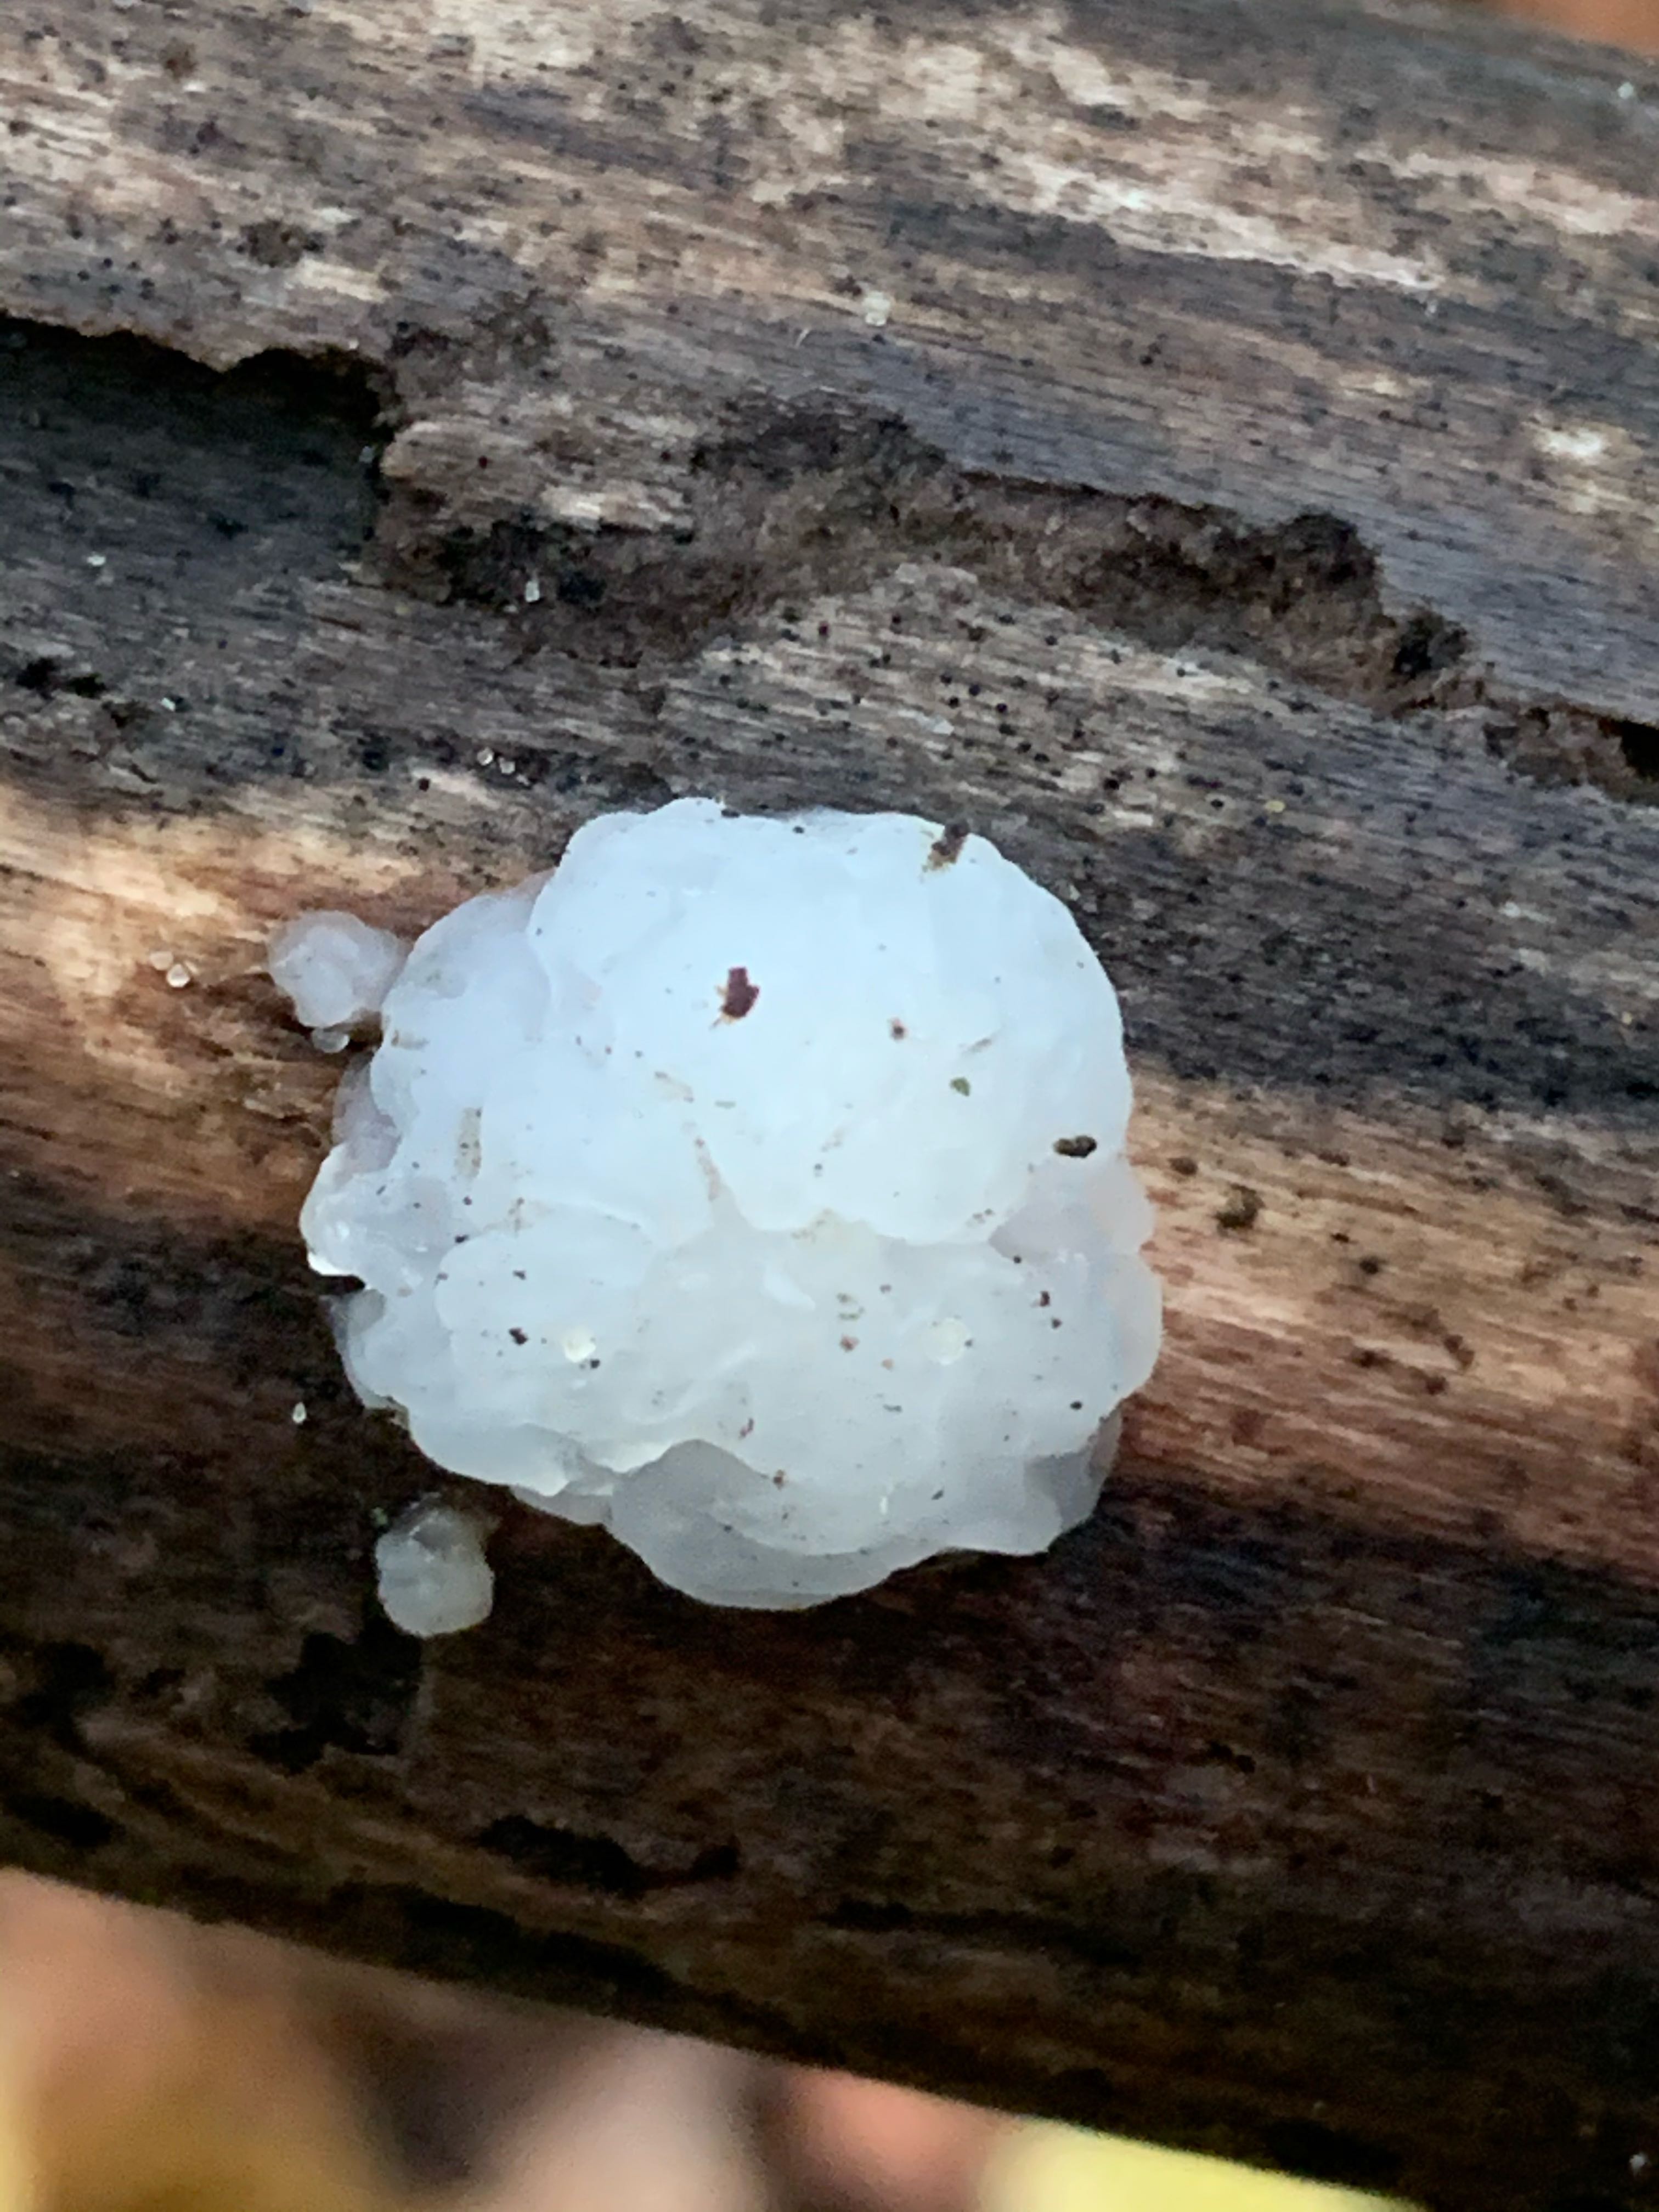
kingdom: Fungi
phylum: Basidiomycota
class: Agaricomycetes
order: Auriculariales
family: Auriculariaceae
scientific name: Auriculariaceae
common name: judasørefamilien
